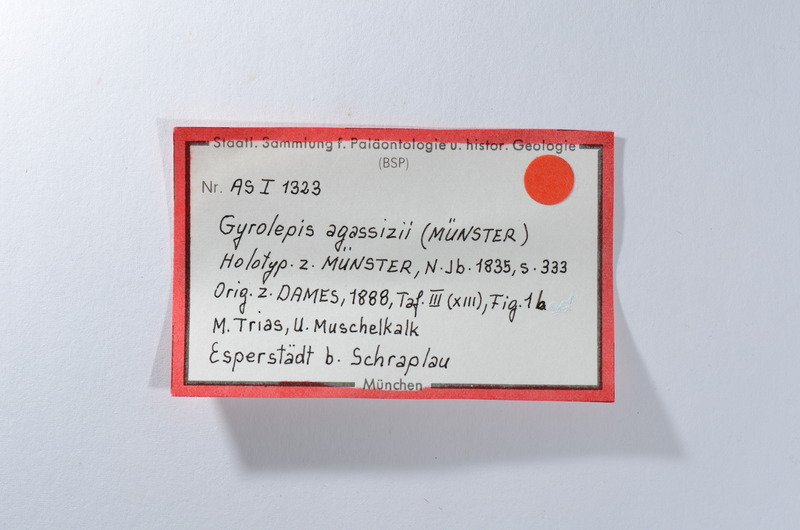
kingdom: Animalia
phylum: Chordata
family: Amblypteridae
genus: Amblypterus
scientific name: Amblypterus agassizii
